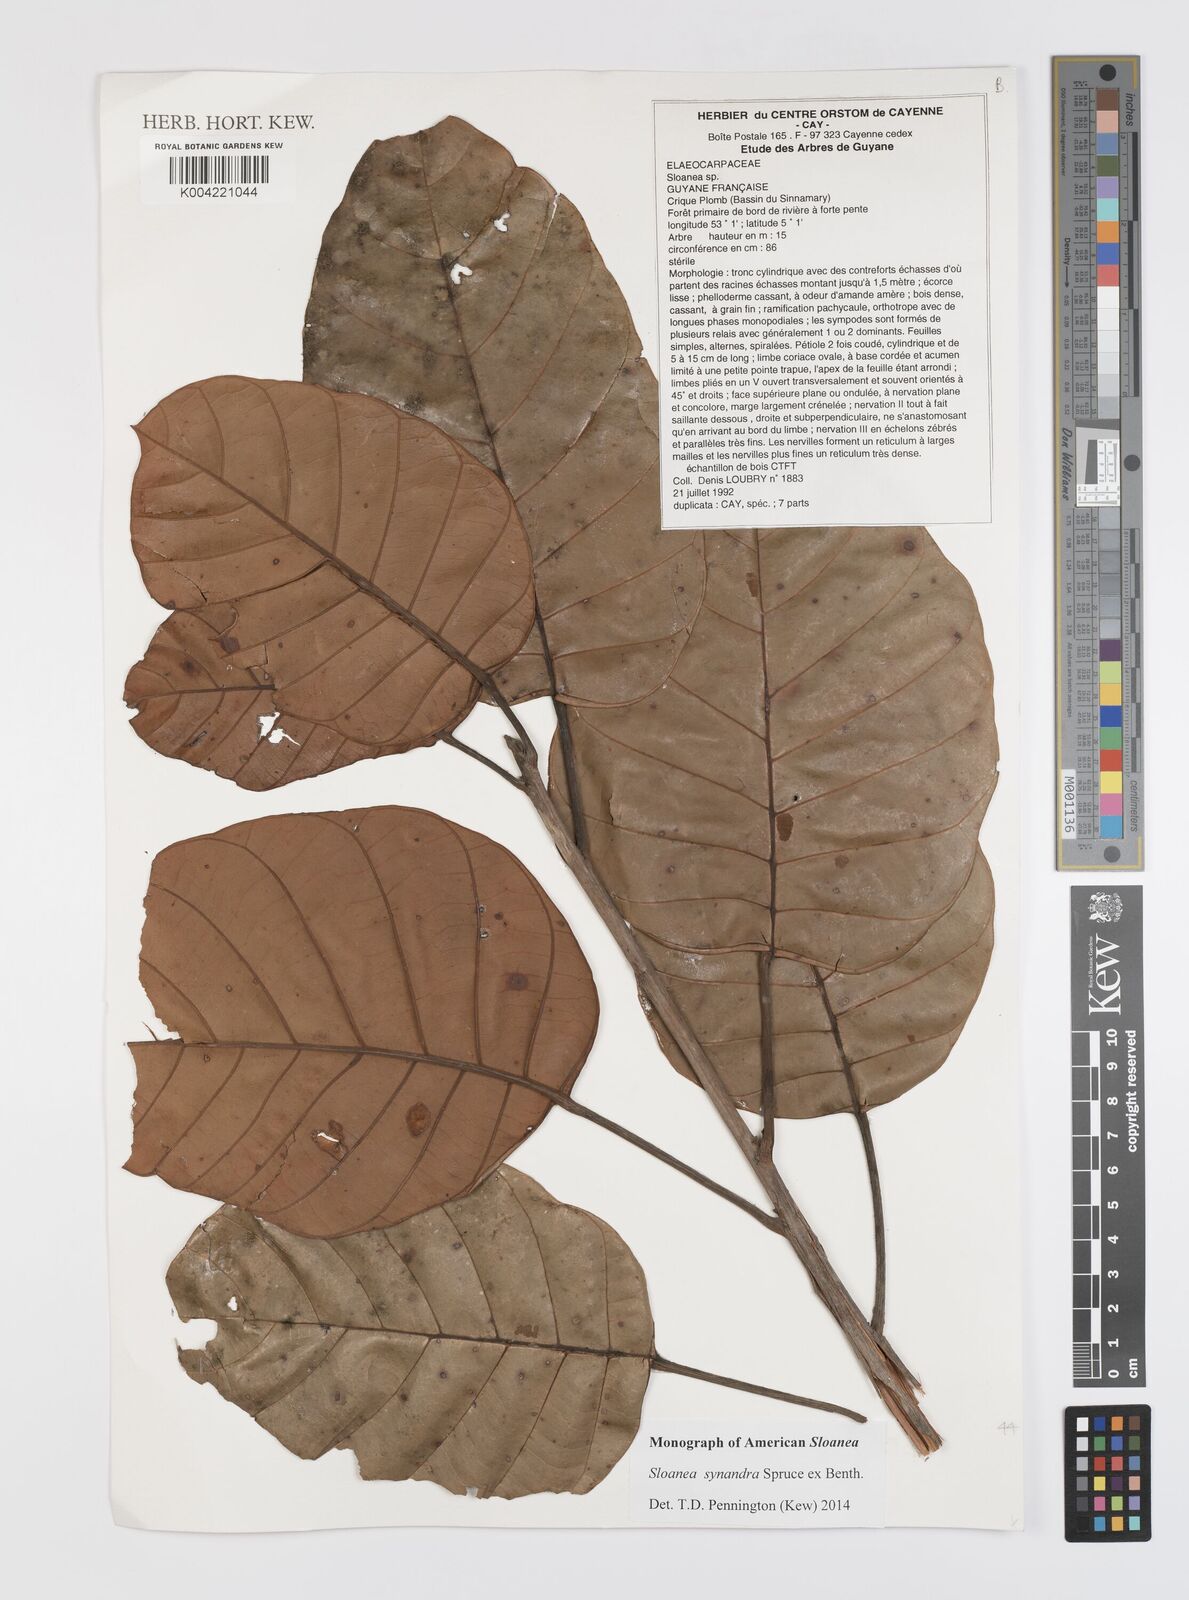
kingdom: Plantae
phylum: Tracheophyta
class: Magnoliopsida
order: Oxalidales
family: Elaeocarpaceae
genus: Sloanea
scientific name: Sloanea synandra
